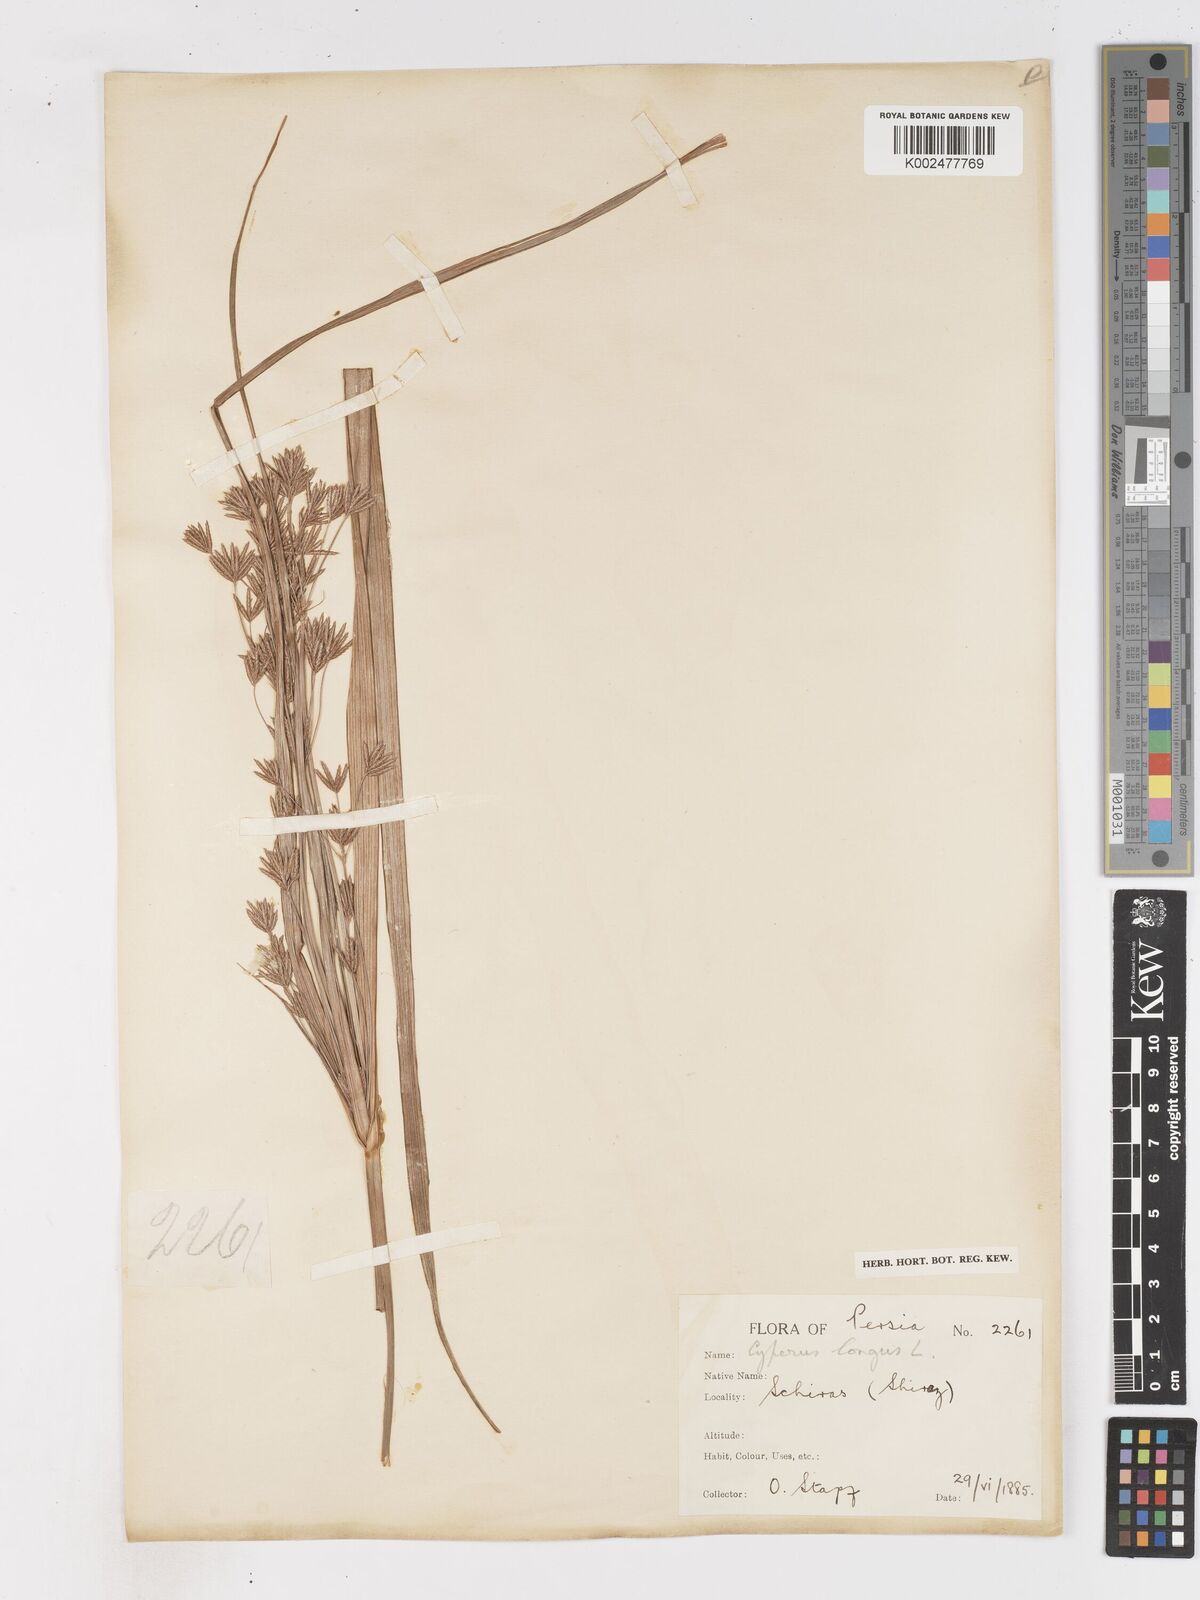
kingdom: Plantae
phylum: Tracheophyta
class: Liliopsida
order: Poales
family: Cyperaceae
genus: Cyperus
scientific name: Cyperus longus
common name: Galingale
